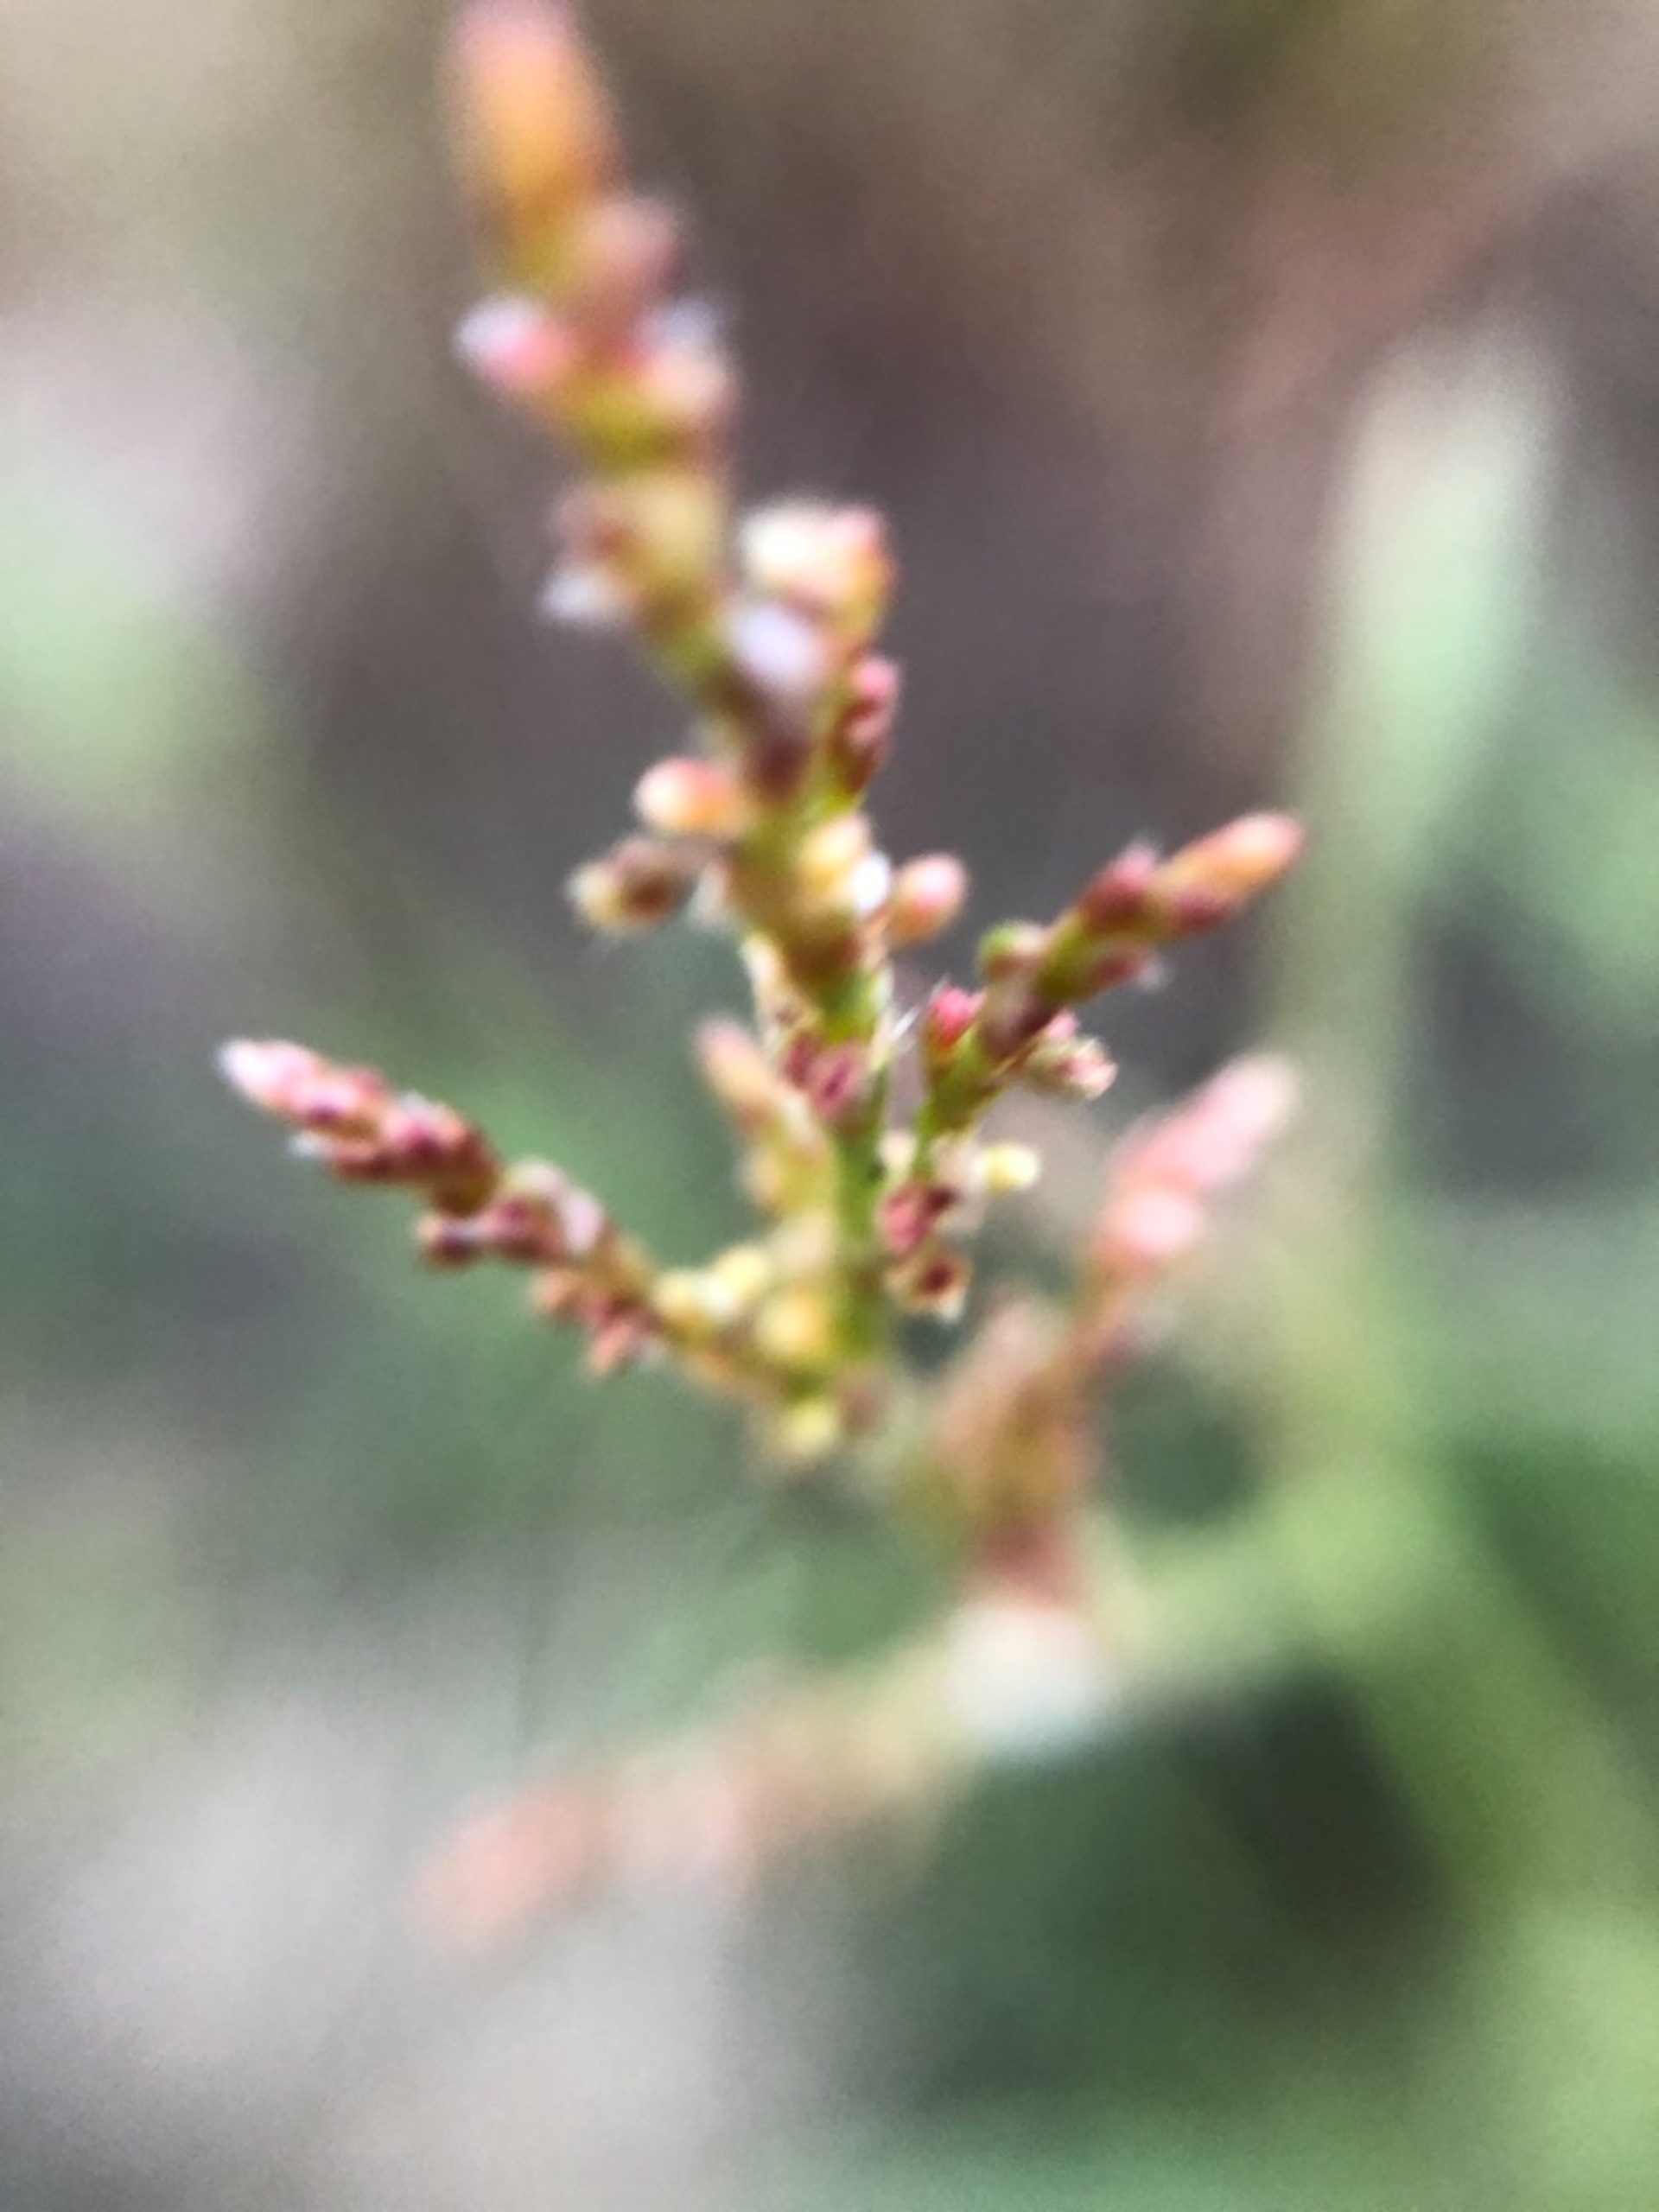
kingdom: Plantae
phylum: Tracheophyta
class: Magnoliopsida
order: Caryophyllales
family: Polygonaceae
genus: Rumex
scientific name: Rumex acetosella
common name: Almindelig rødknæ
